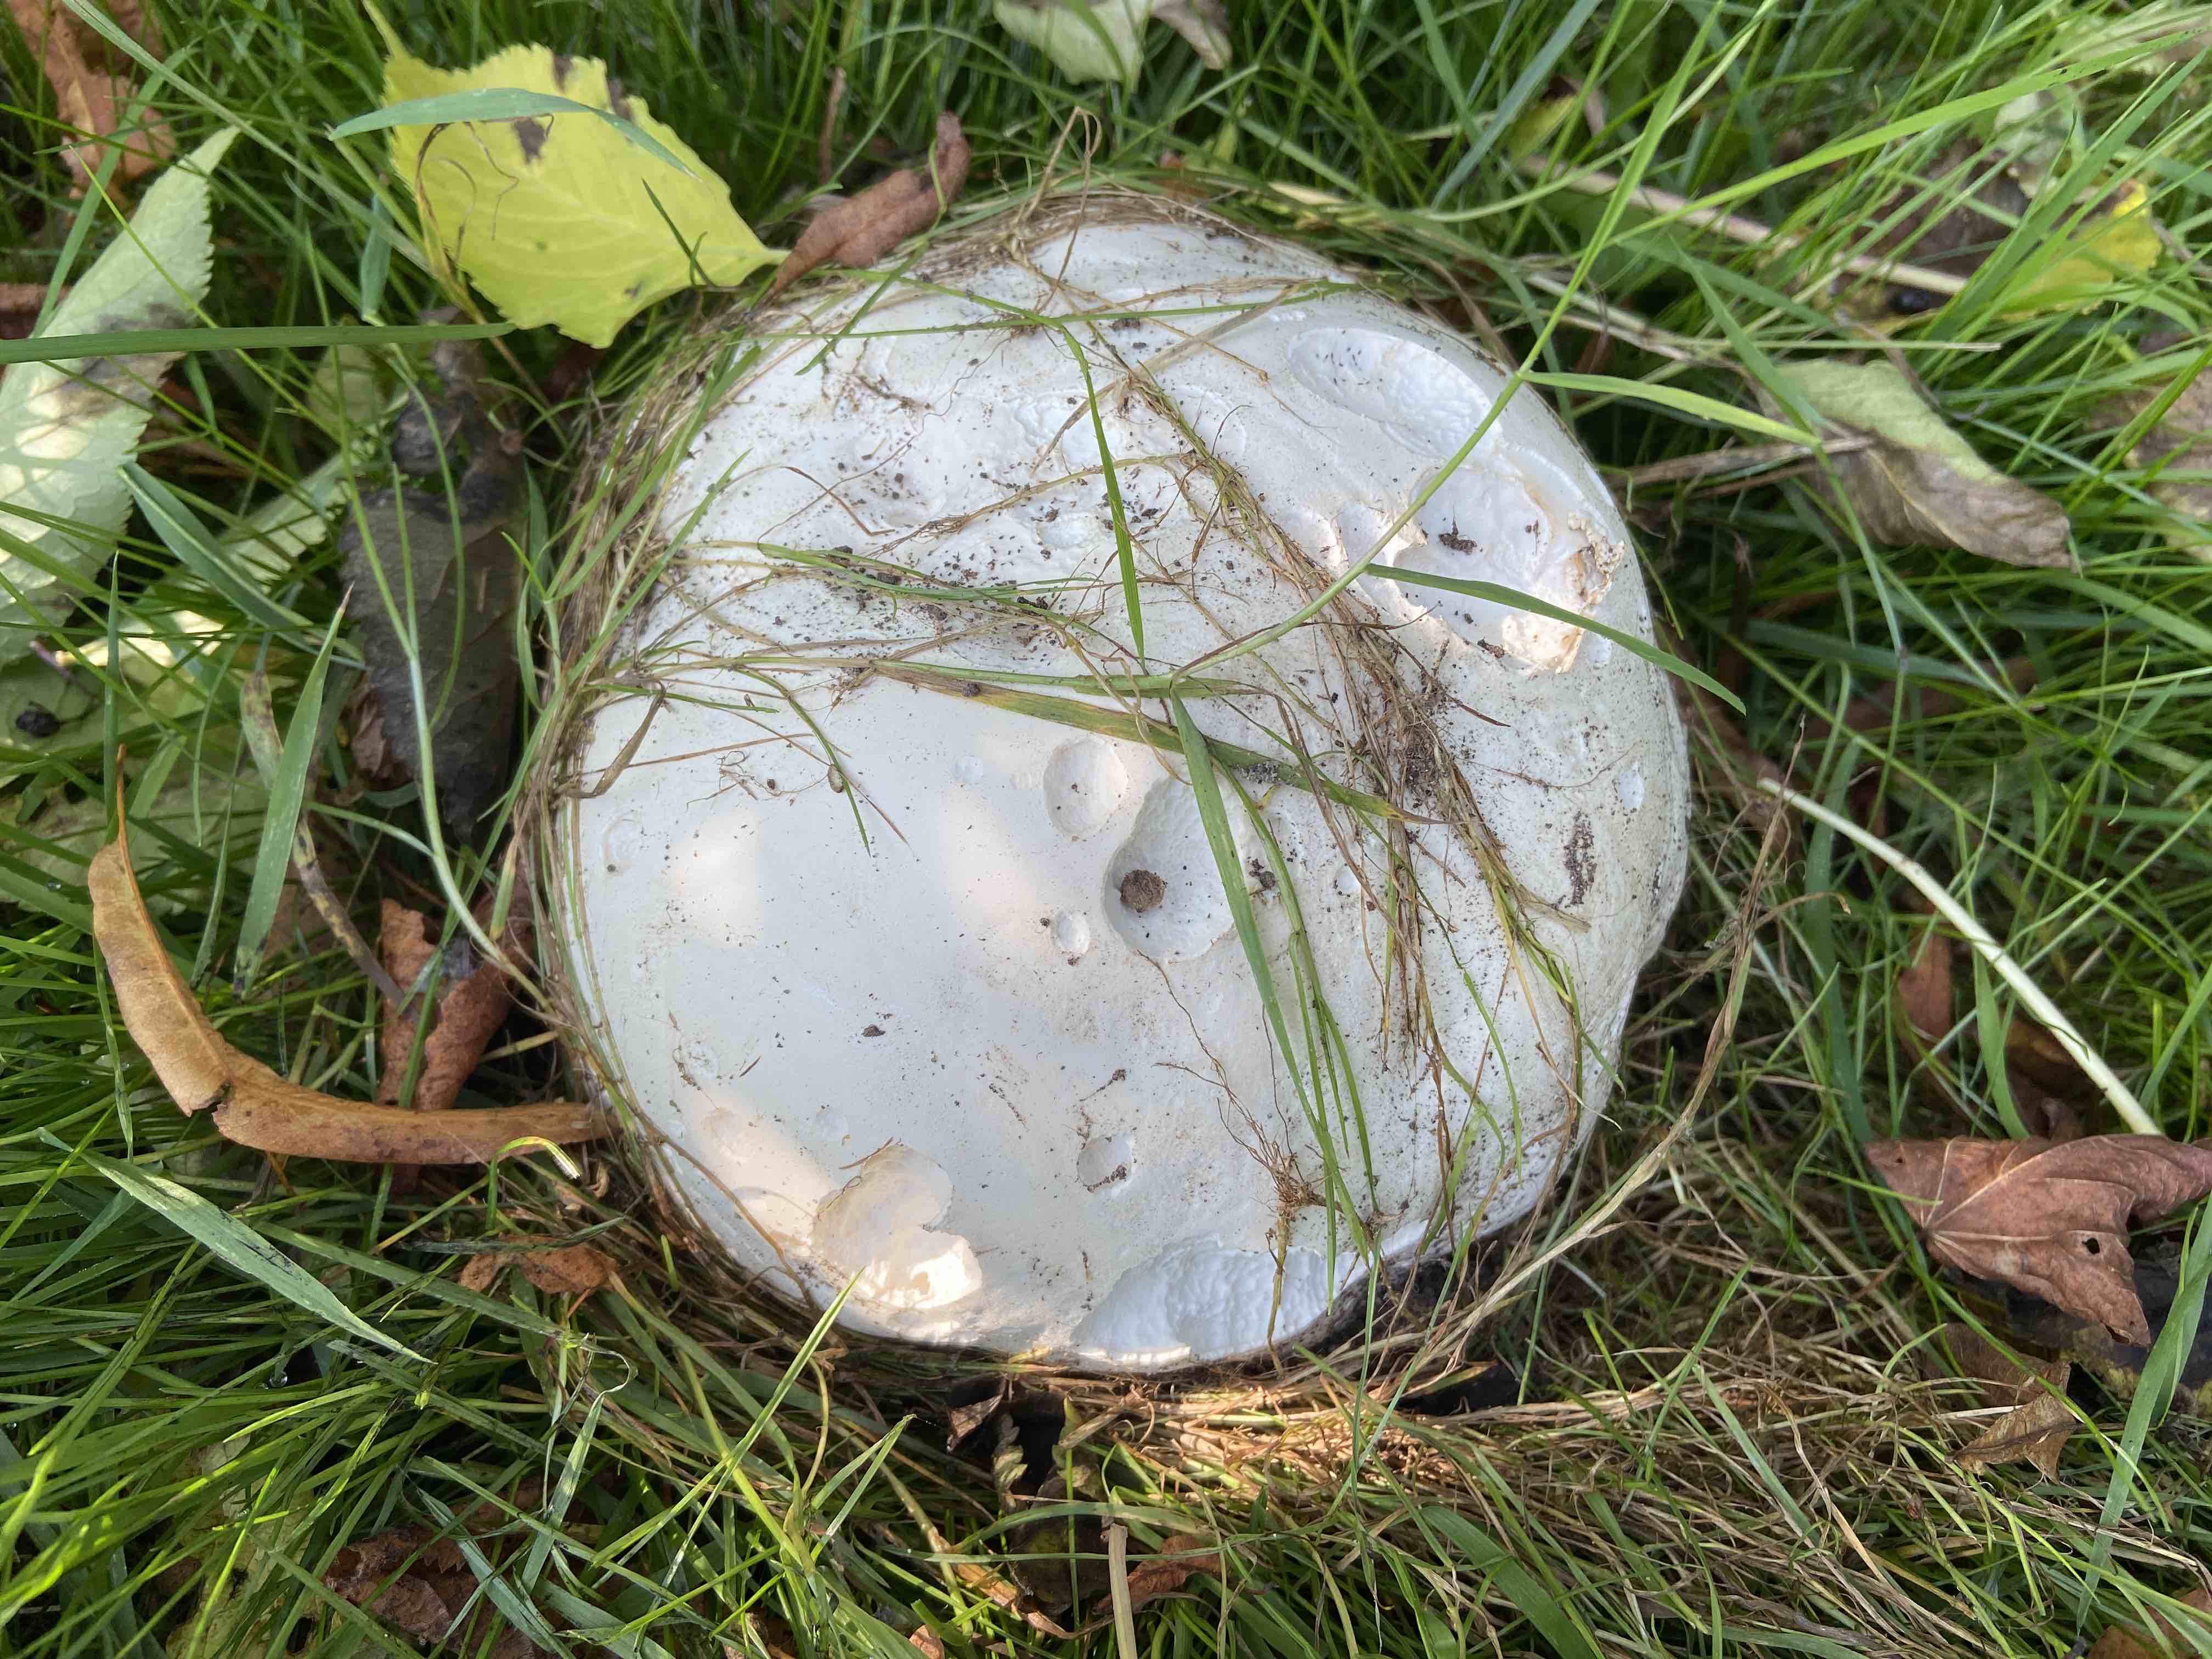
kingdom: Fungi
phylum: Basidiomycota
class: Agaricomycetes
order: Agaricales
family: Lycoperdaceae
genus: Calvatia
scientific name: Calvatia gigantea
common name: kæmpestøvbold
